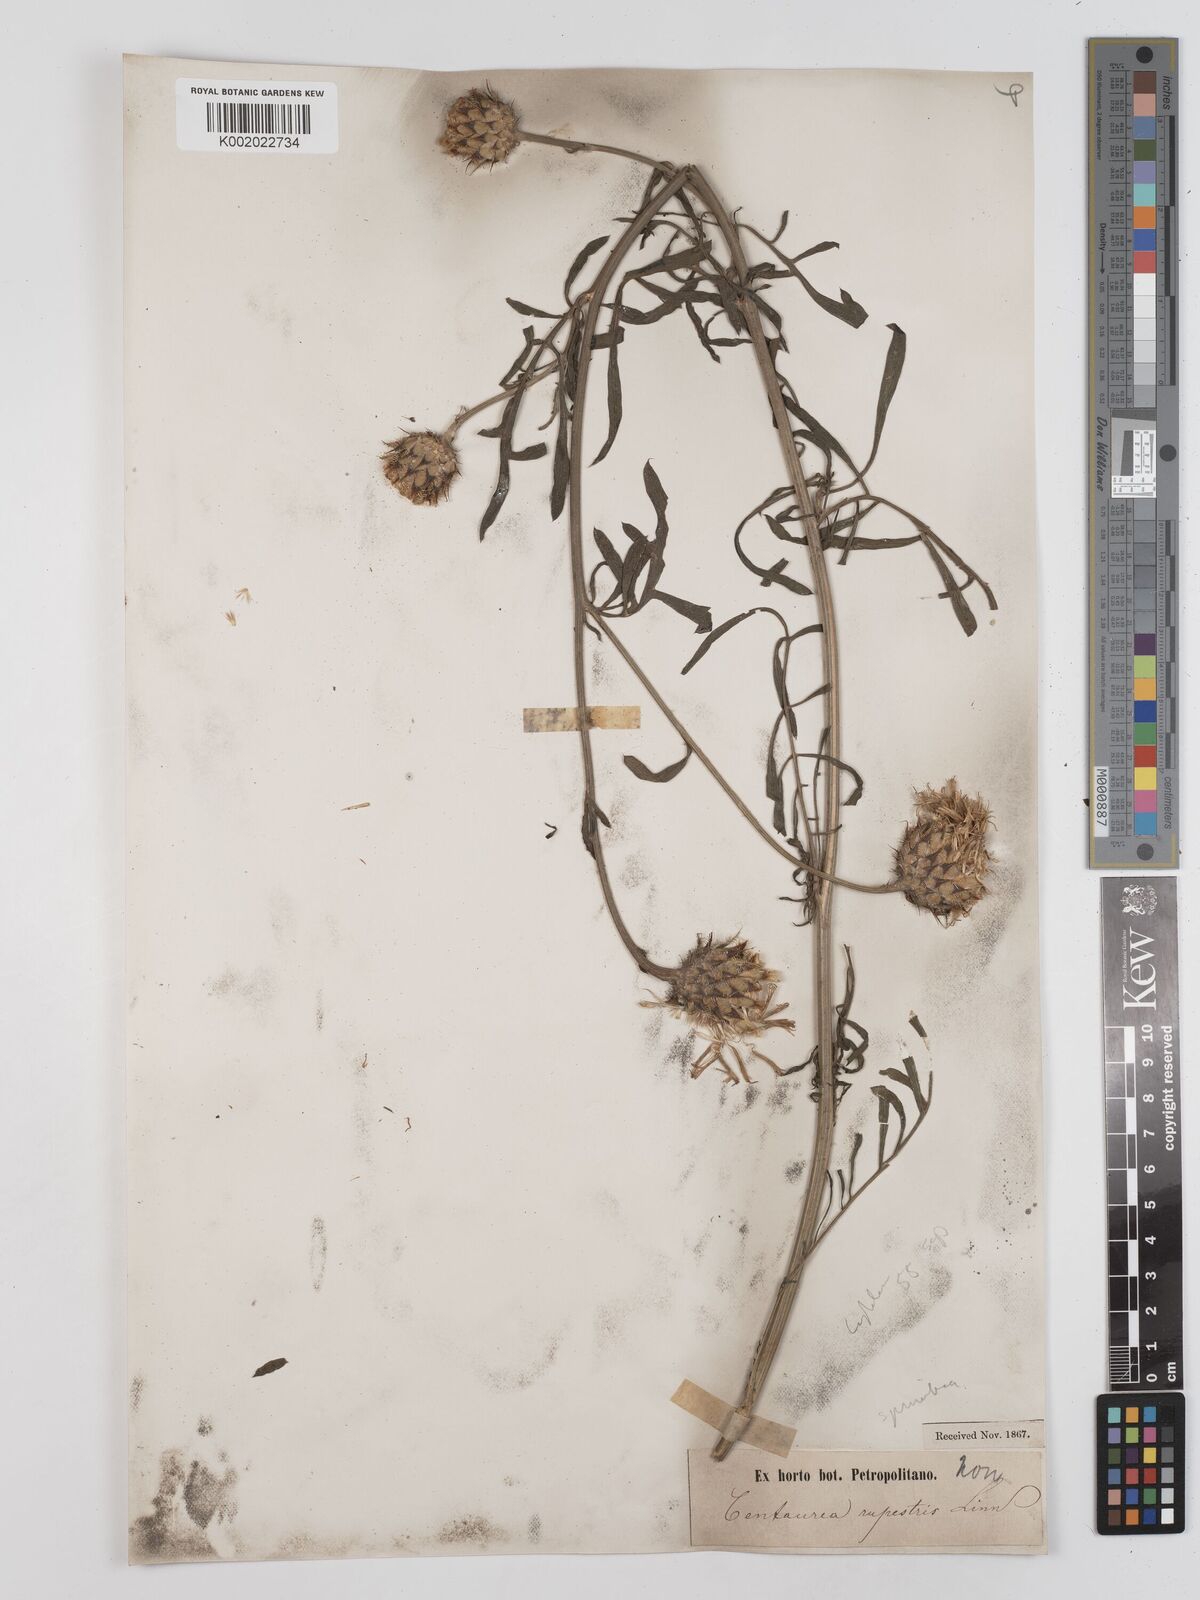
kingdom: Plantae
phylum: Tracheophyta
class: Magnoliopsida
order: Asterales
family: Asteraceae
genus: Centaurea
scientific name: Centaurea
